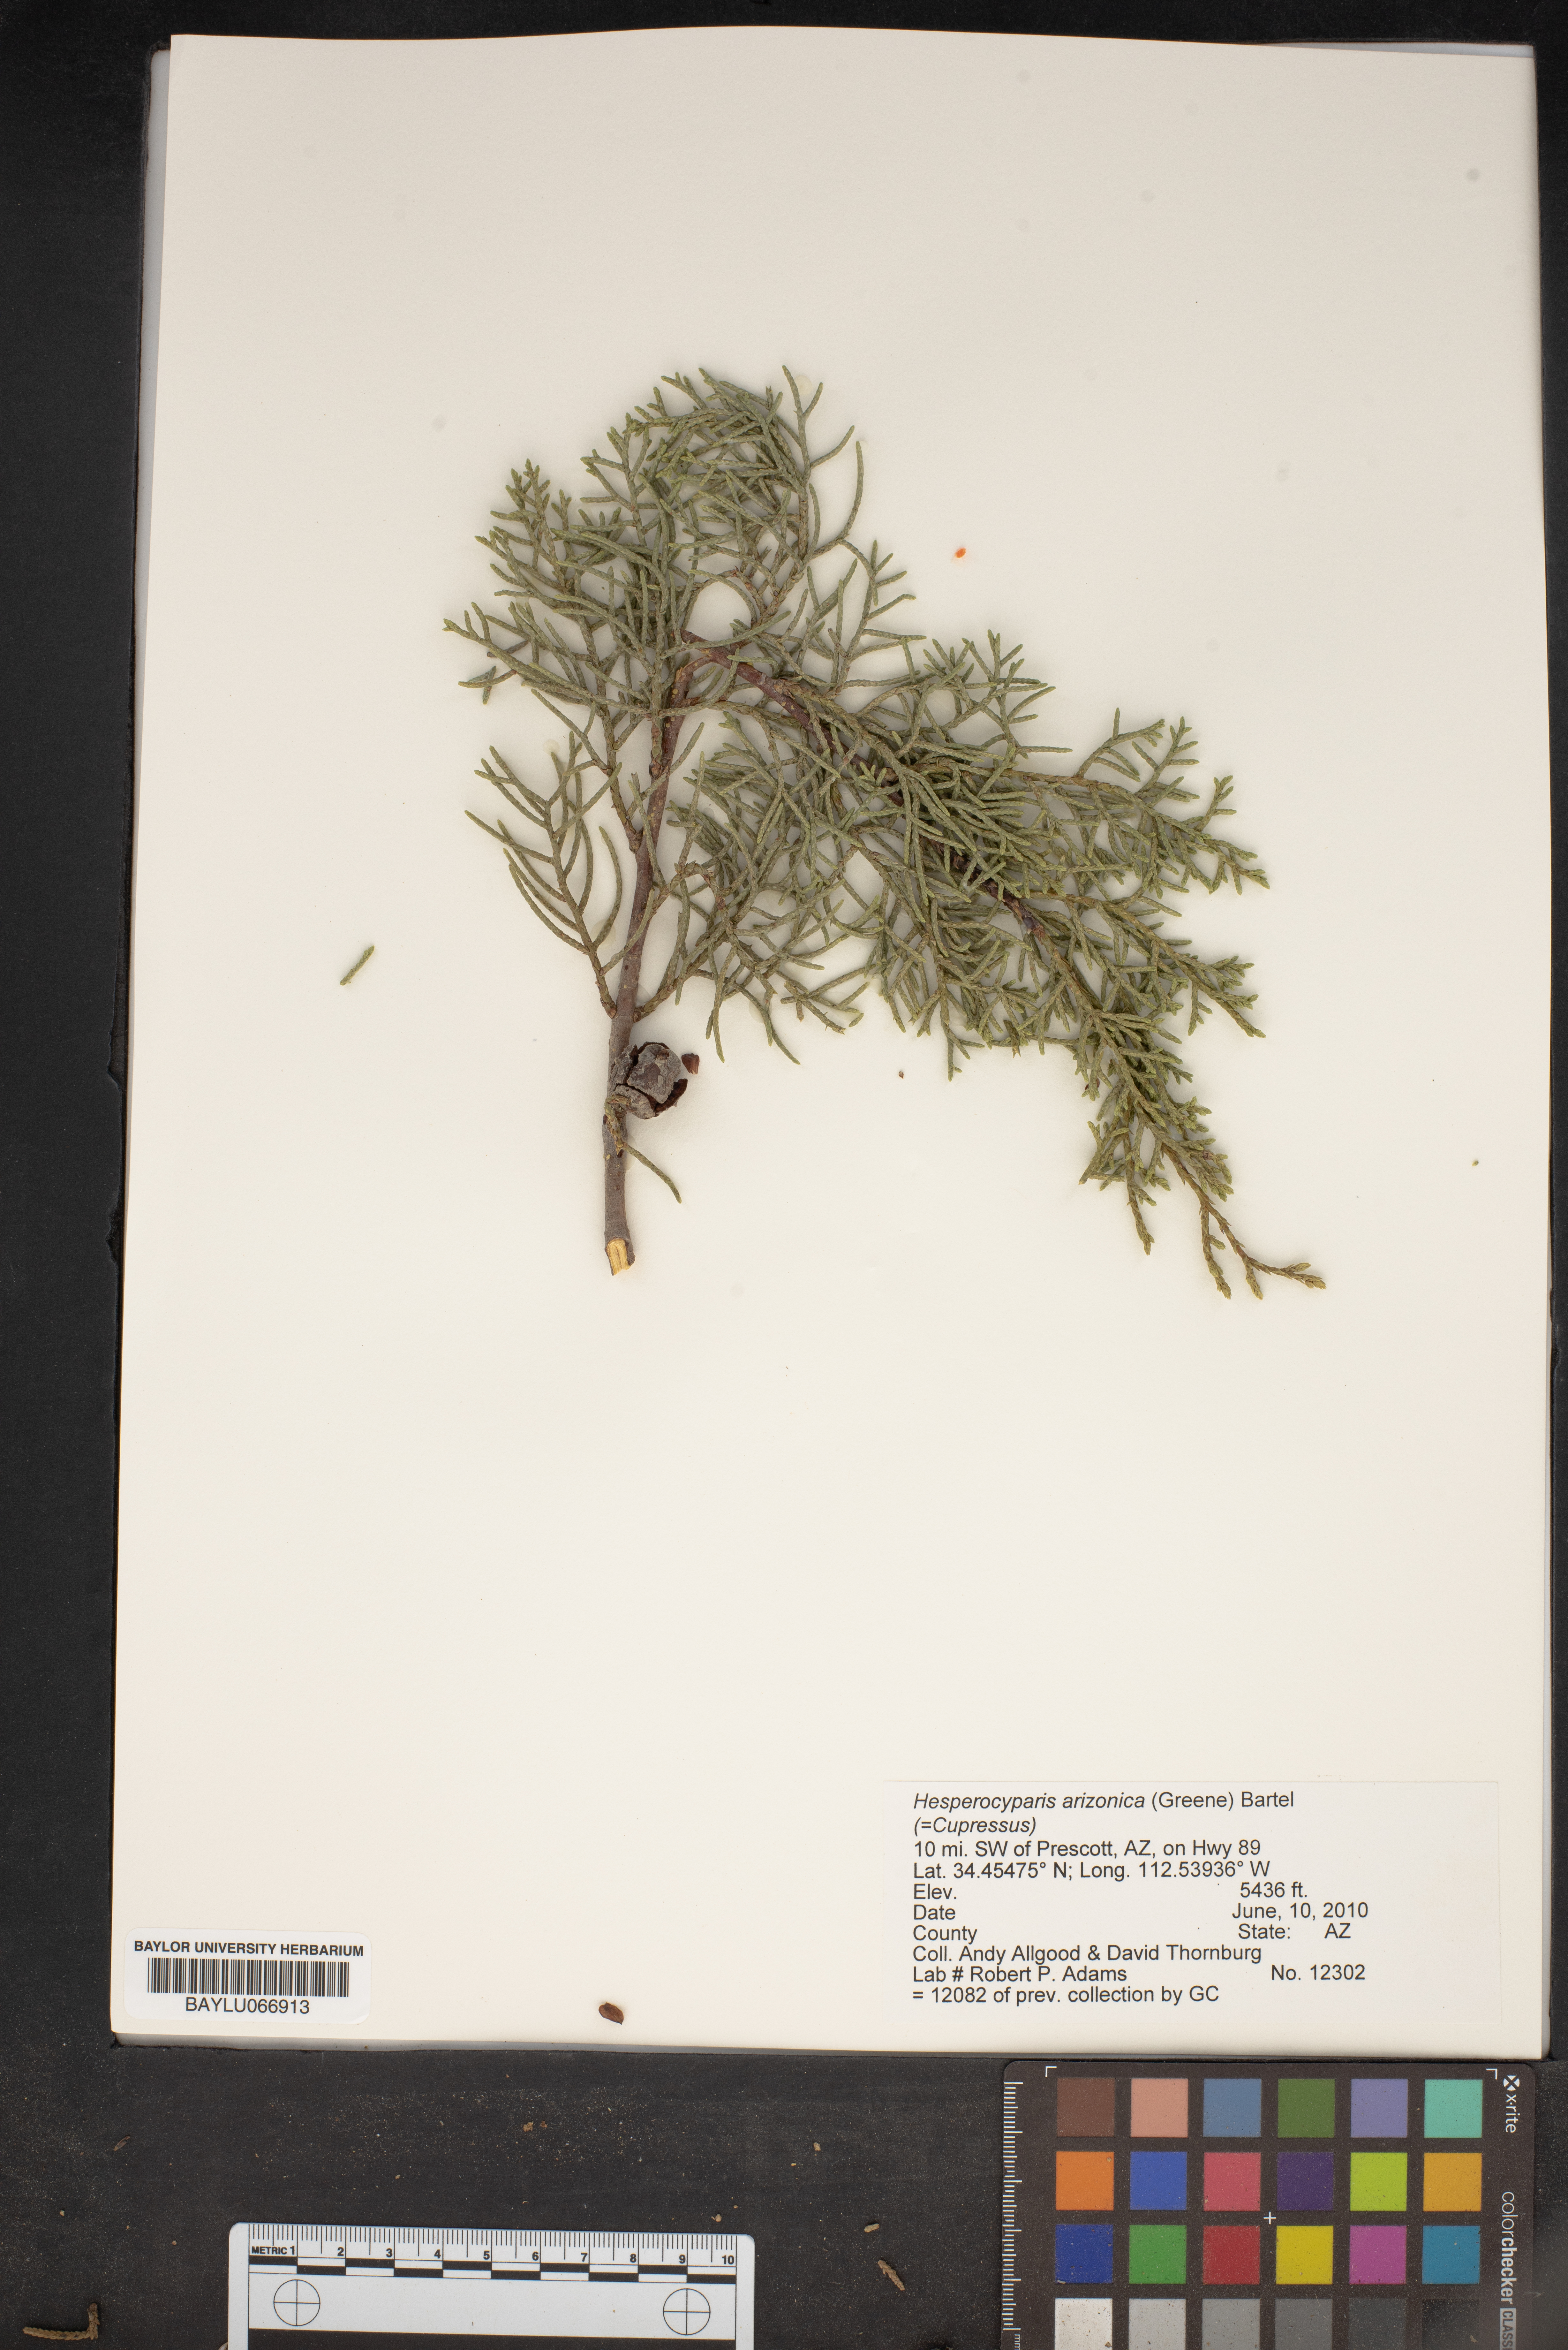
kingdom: Plantae
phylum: Tracheophyta
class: Pinopsida
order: Pinales
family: Cupressaceae
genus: Cupressus
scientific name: Cupressus arizonica
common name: Arizona cypress
